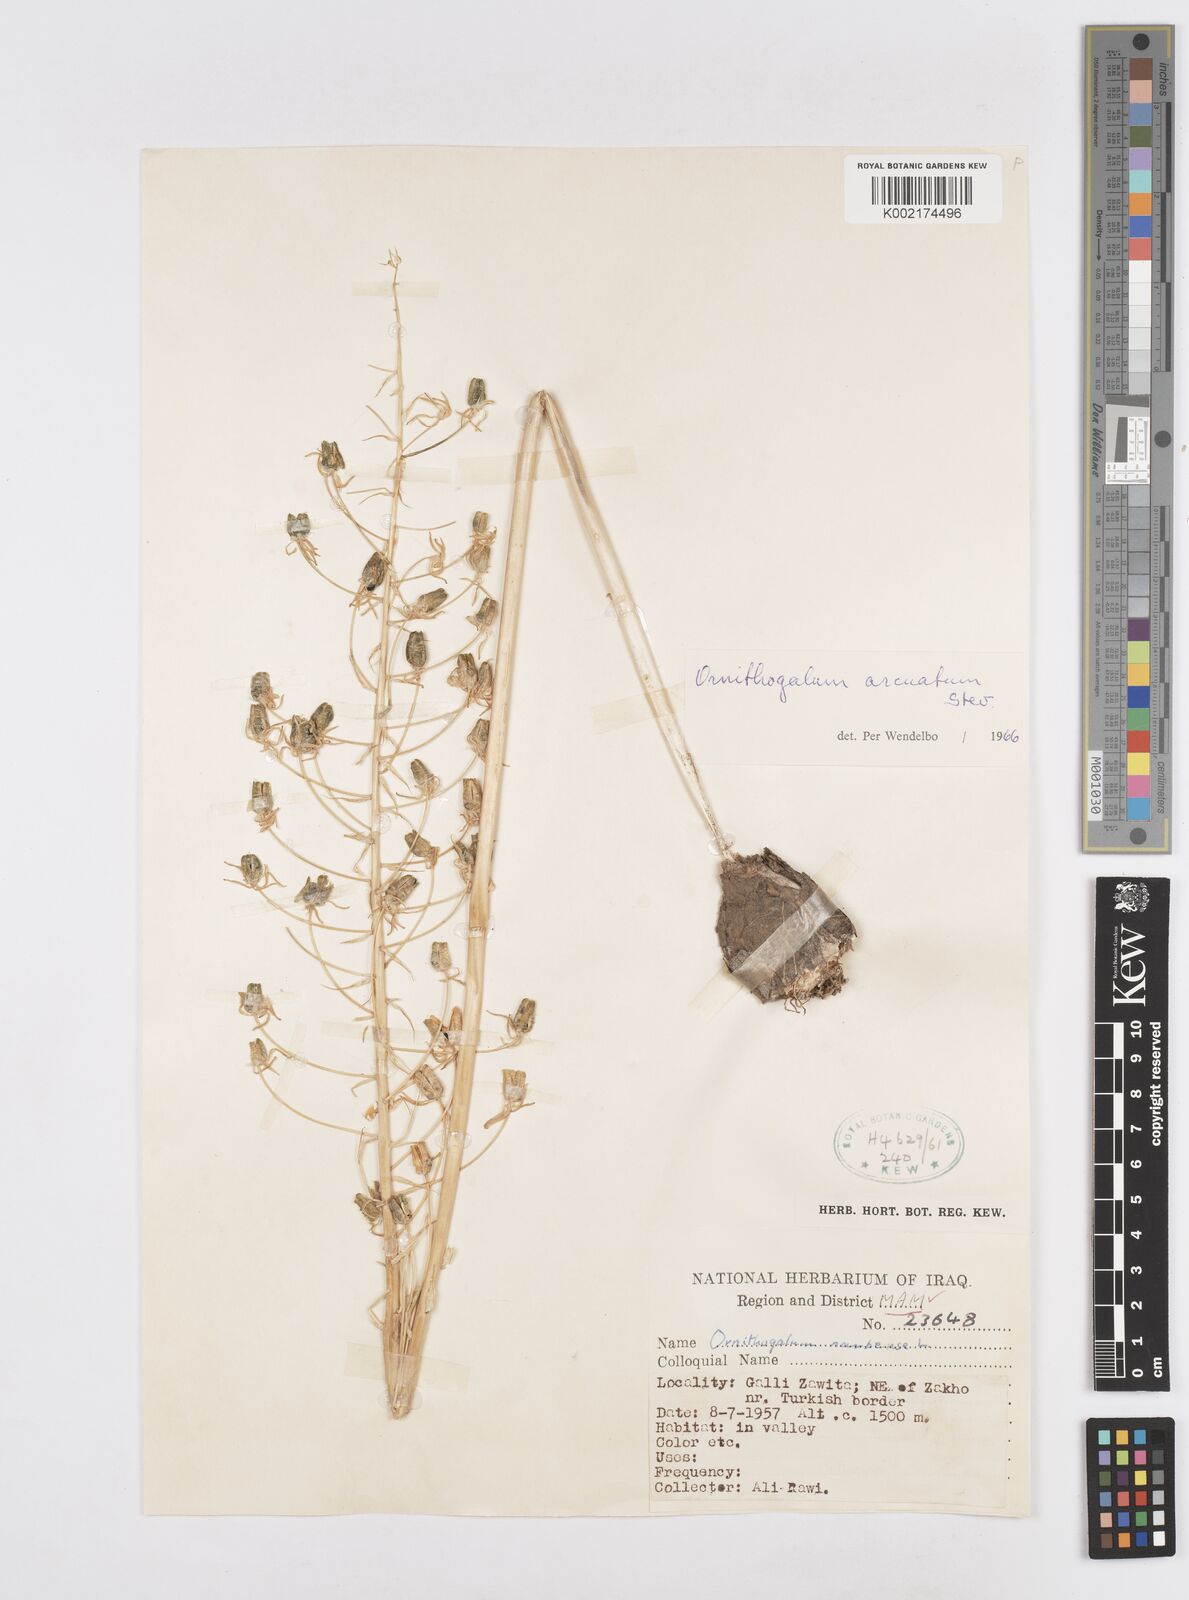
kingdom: Plantae
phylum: Tracheophyta
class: Liliopsida
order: Asparagales
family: Asparagaceae
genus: Ornithogalum
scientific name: Ornithogalum arcuatum
